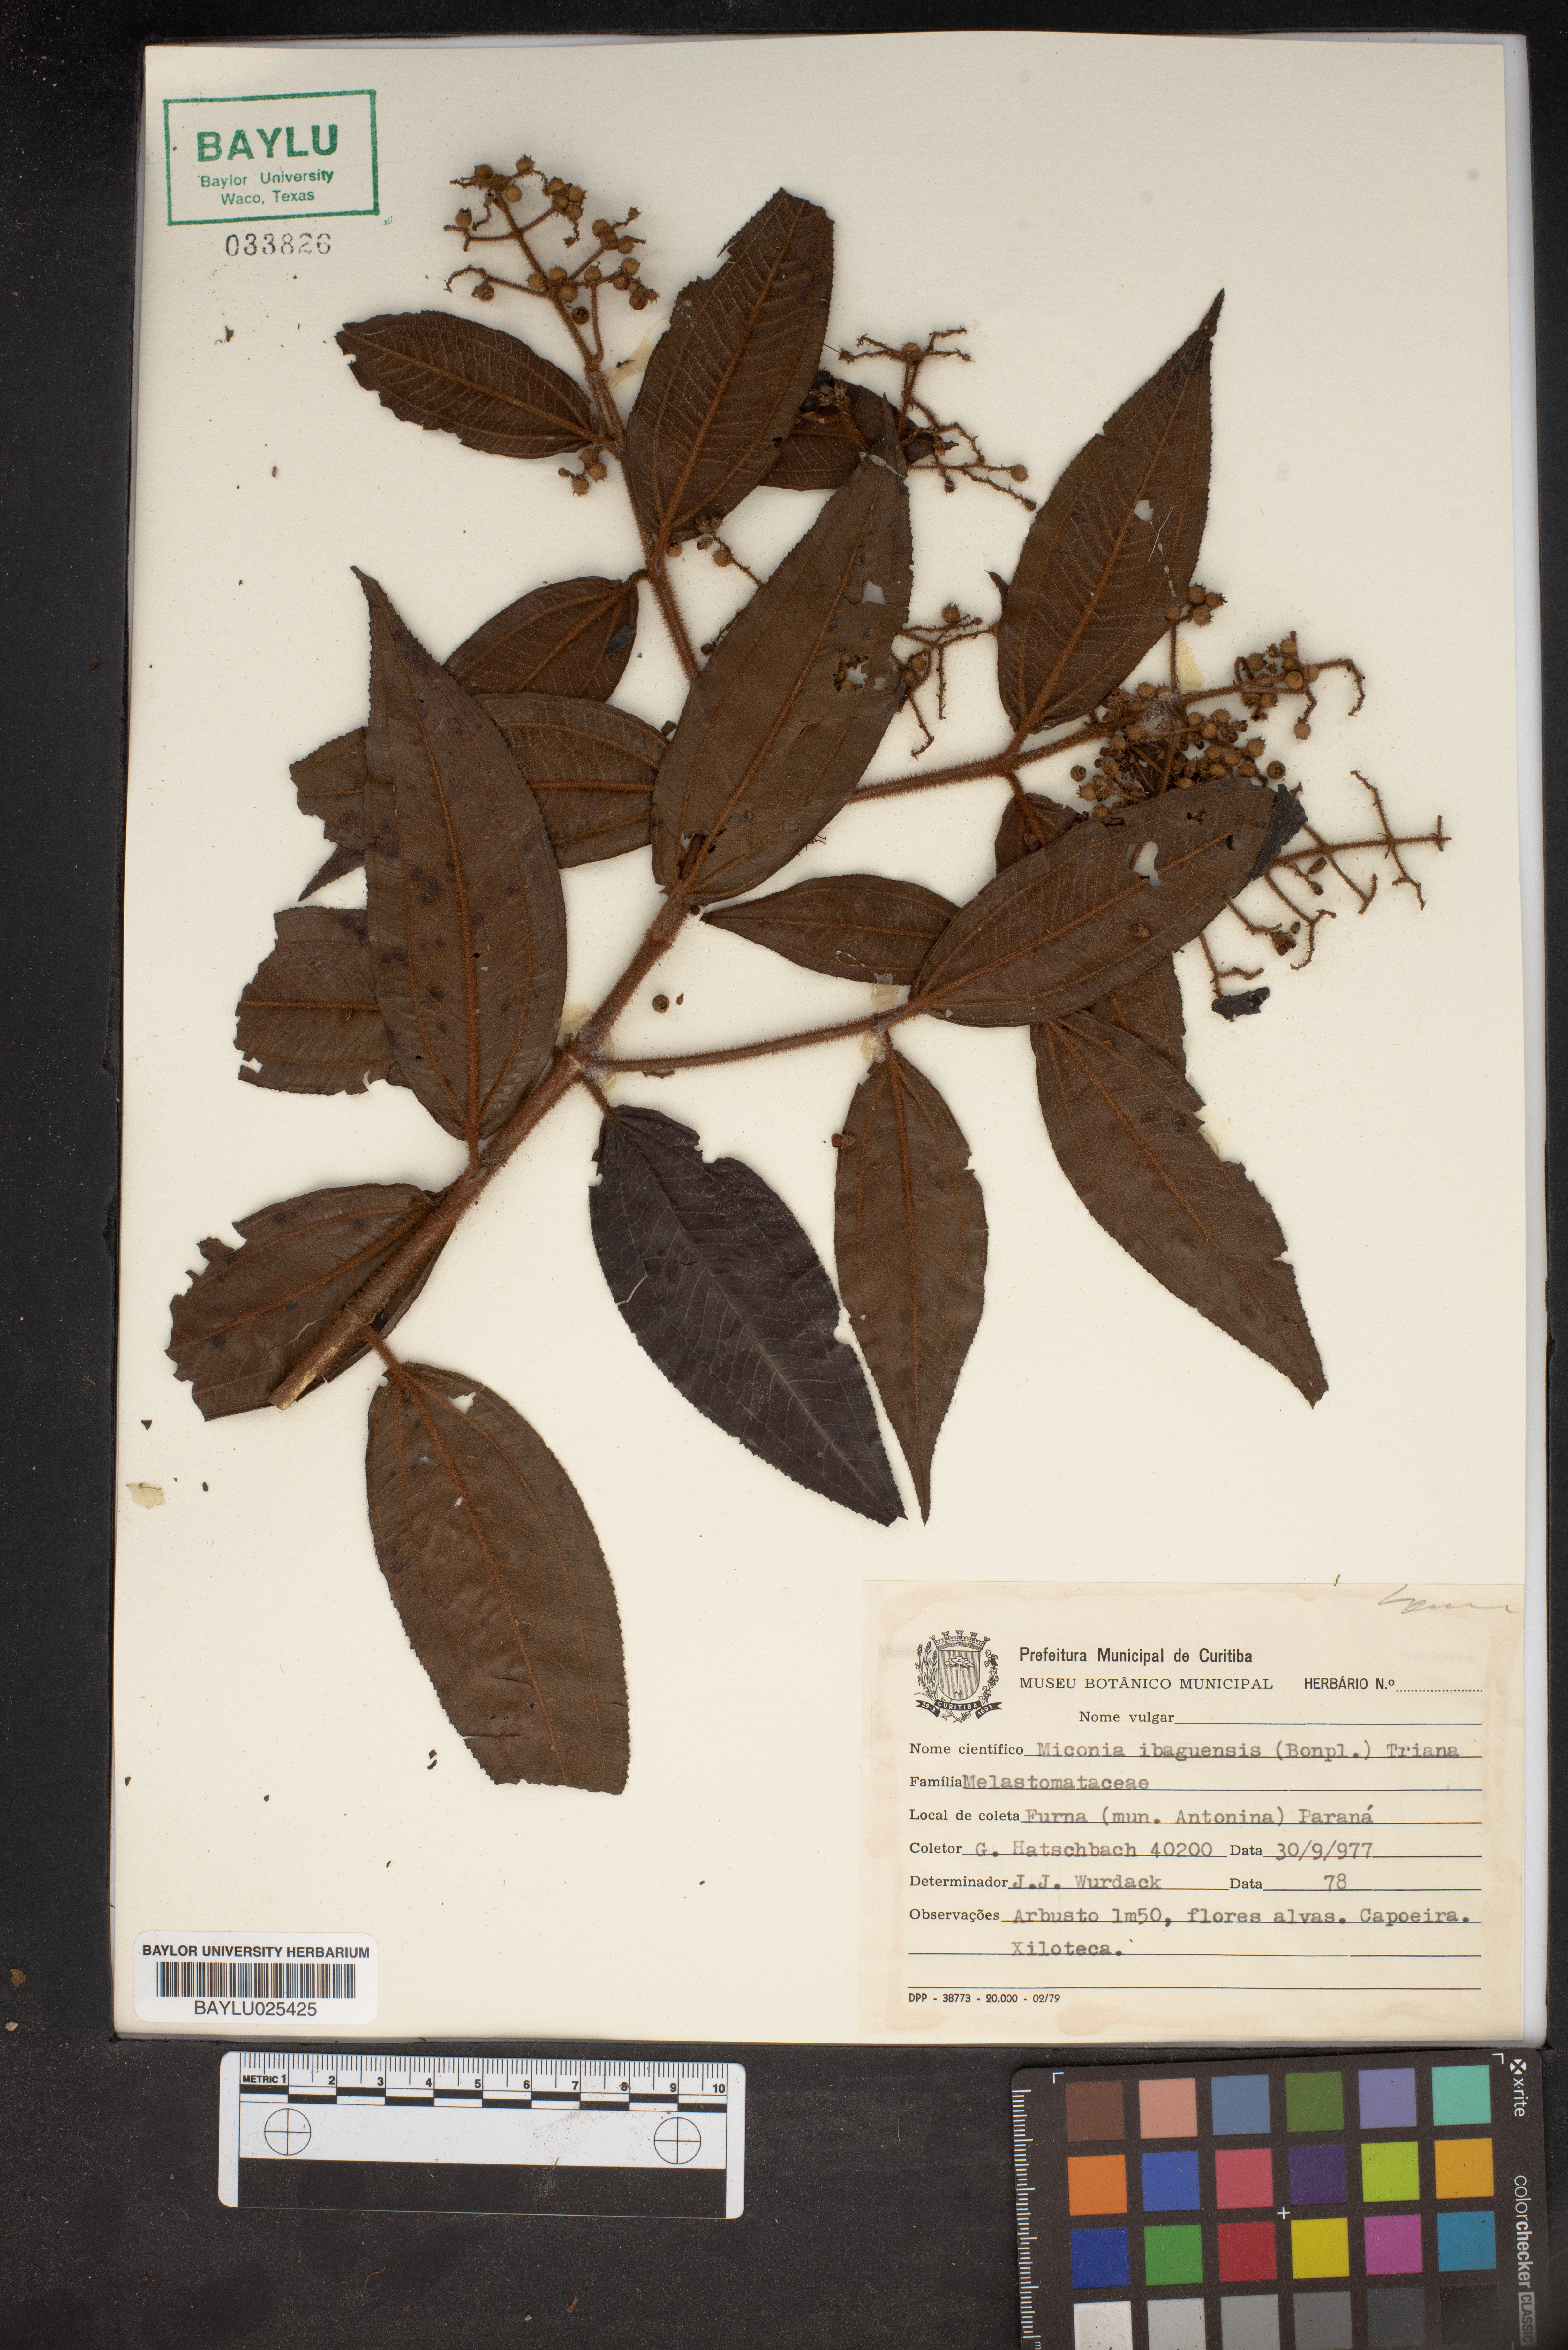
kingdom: Plantae
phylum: Tracheophyta
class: Magnoliopsida
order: Myrtales
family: Melastomataceae
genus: Miconia
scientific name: Miconia ibaguensis
